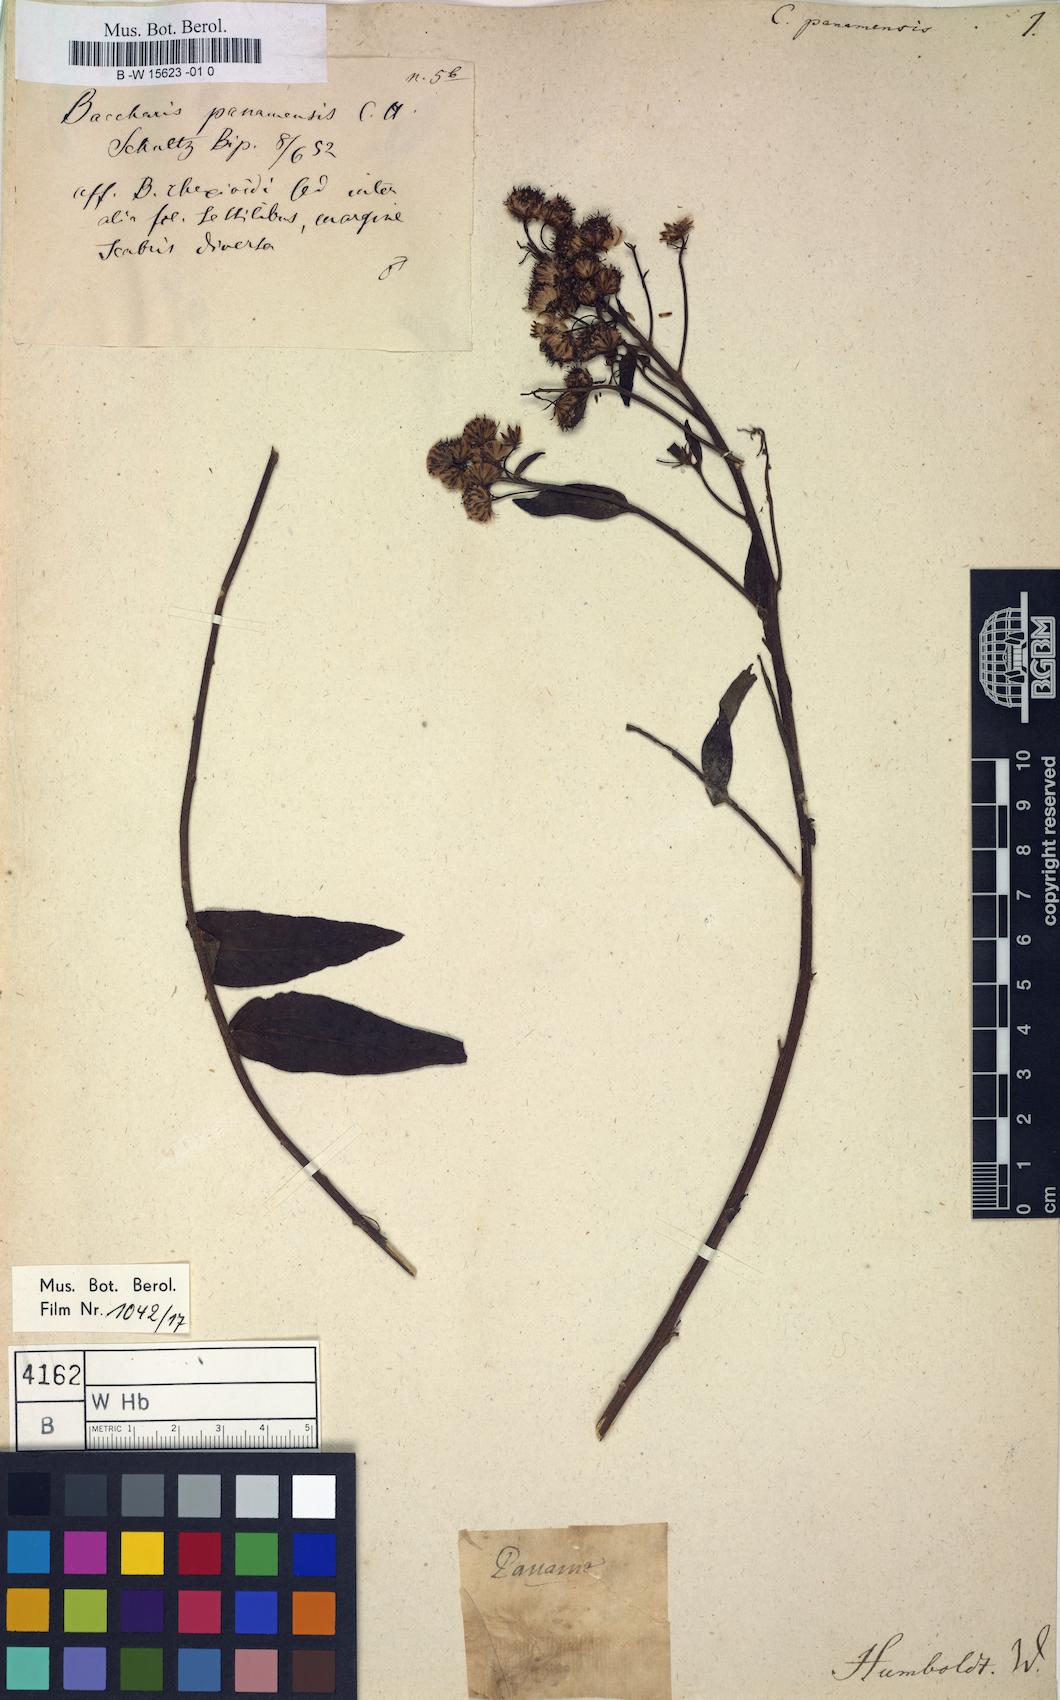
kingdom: Plantae
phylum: Tracheophyta
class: Magnoliopsida
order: Asterales
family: Asteraceae
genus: Erigeron
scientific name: Erigeron Conyza panamensis
